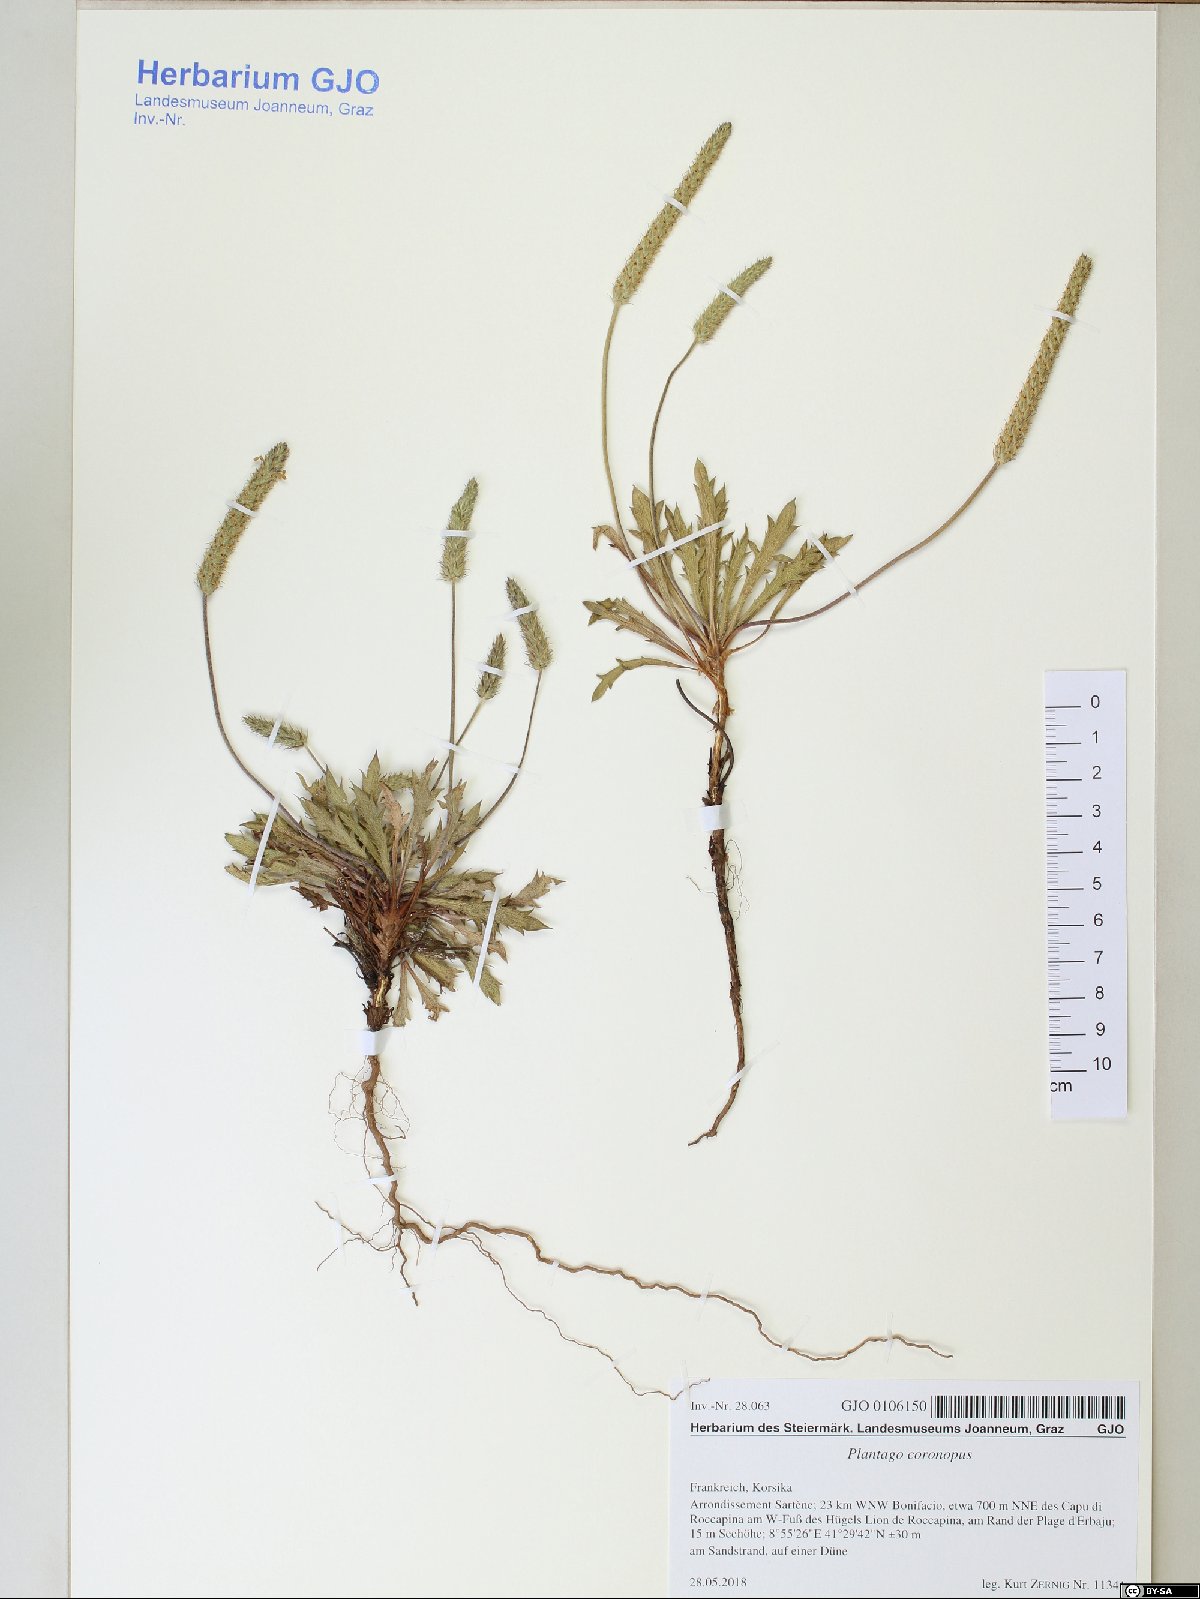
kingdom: Plantae
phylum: Tracheophyta
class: Magnoliopsida
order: Lamiales
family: Plantaginaceae
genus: Plantago
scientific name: Plantago coronopus
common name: Buck's-horn plantain
